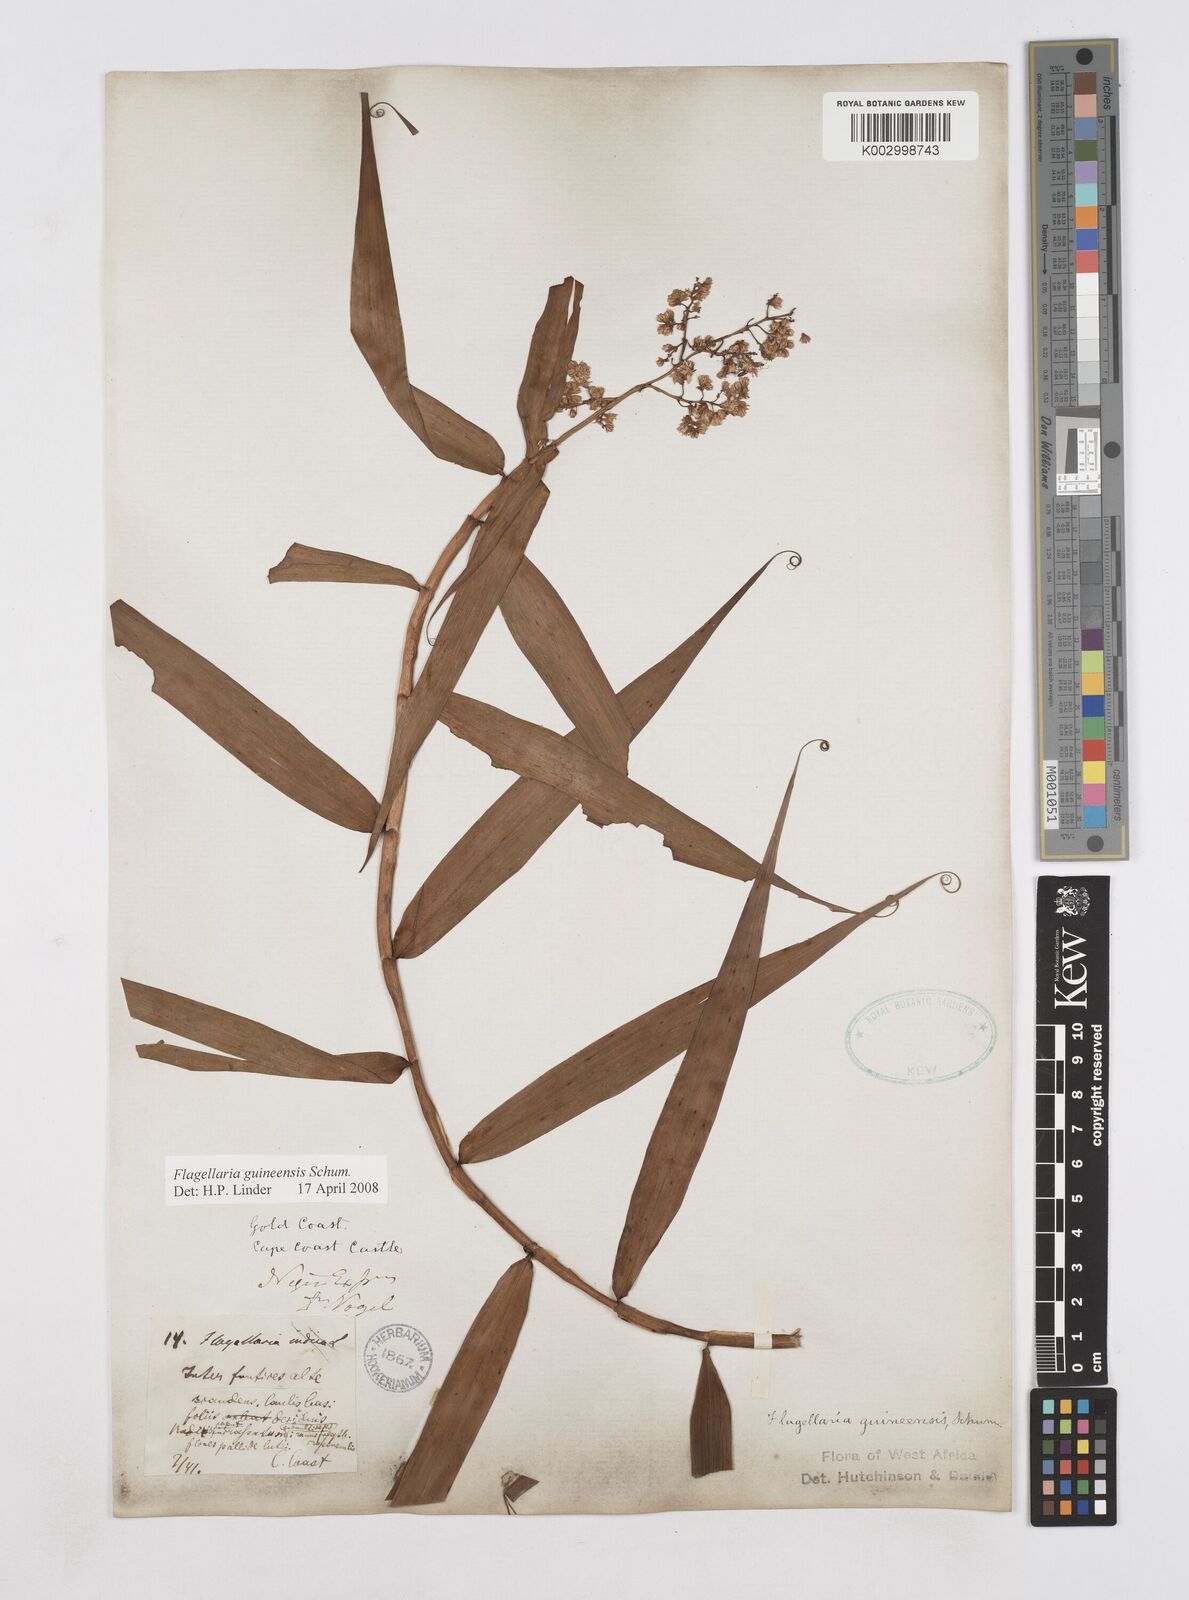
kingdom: Plantae
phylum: Tracheophyta
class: Liliopsida
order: Poales
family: Flagellariaceae
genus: Flagellaria
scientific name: Flagellaria guineensis
